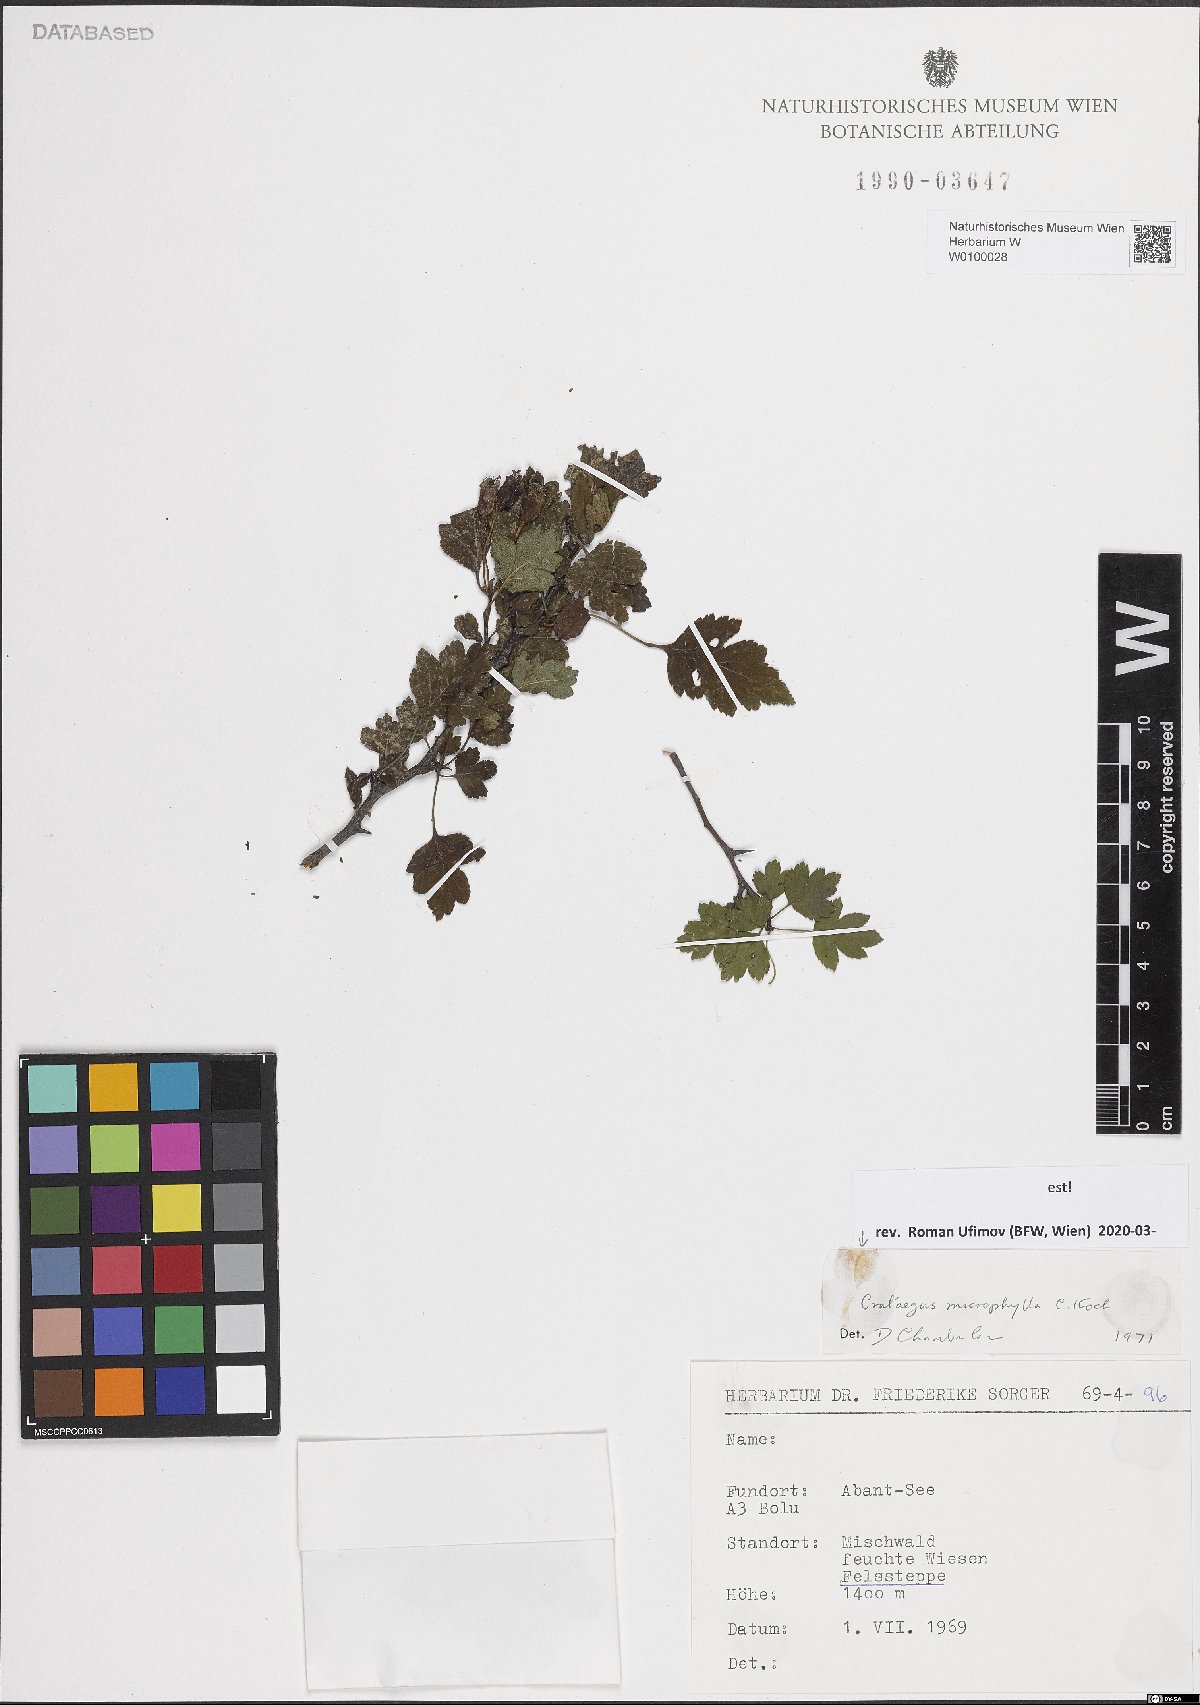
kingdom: Plantae
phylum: Tracheophyta
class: Magnoliopsida
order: Rosales
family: Rosaceae
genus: Crataegus
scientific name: Crataegus microphylla
